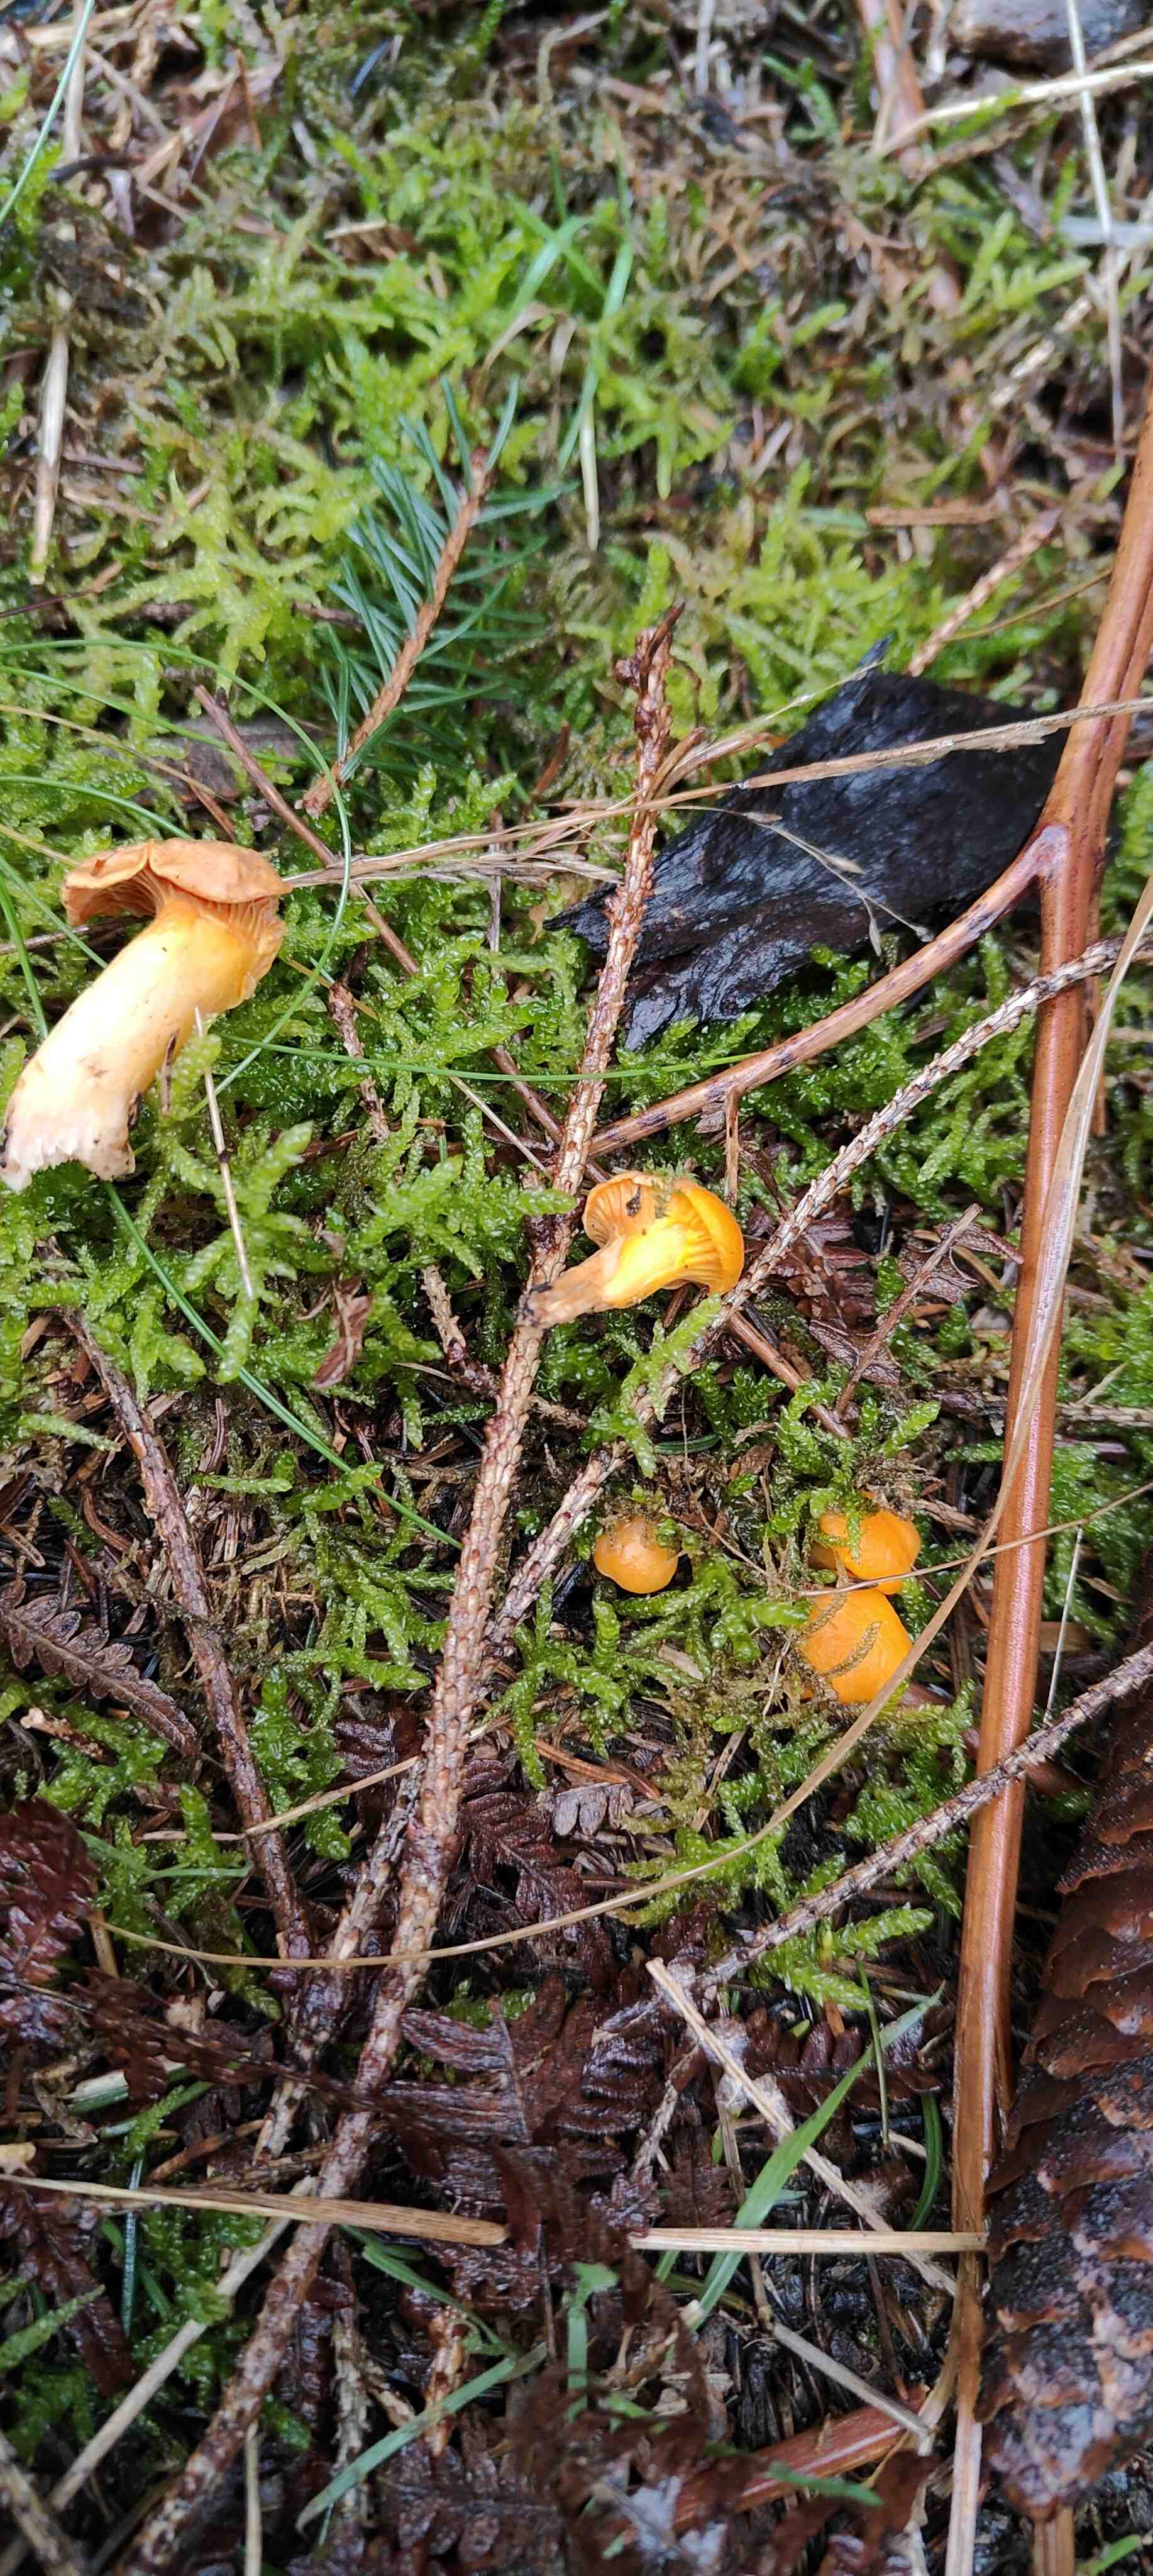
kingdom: Fungi
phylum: Basidiomycota
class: Agaricomycetes
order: Cantharellales
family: Hydnaceae
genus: Cantharellus
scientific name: Cantharellus cibarius
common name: almindelig kantarel
